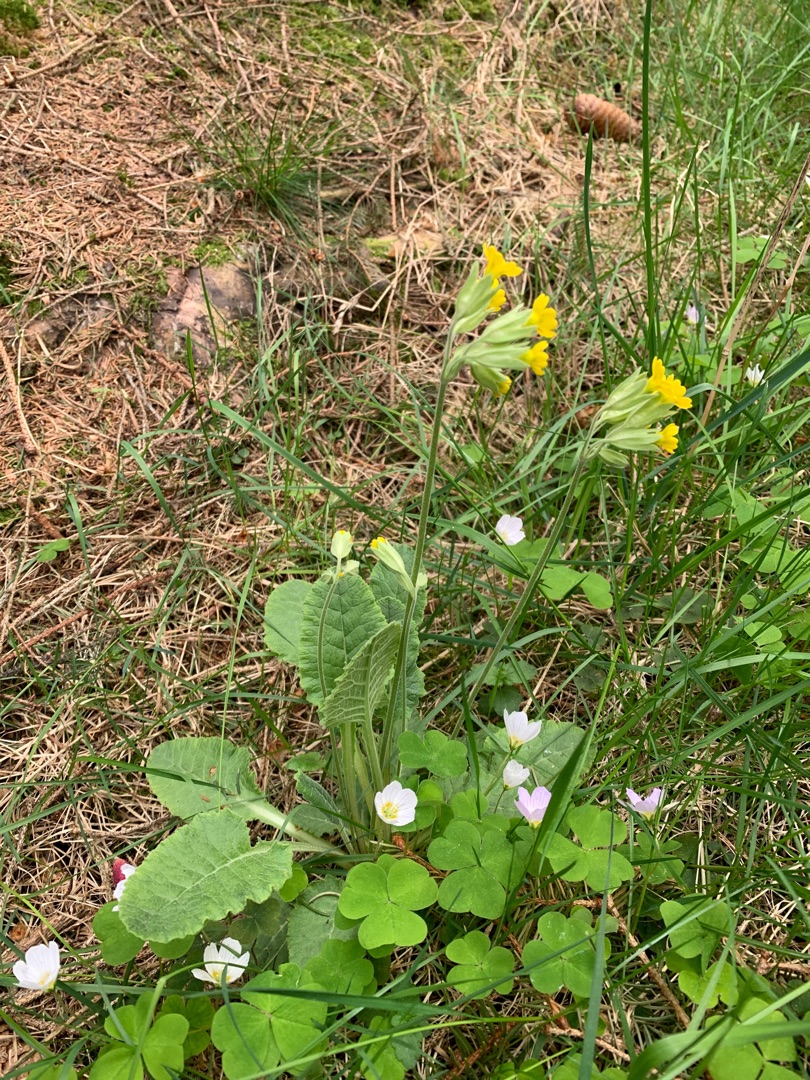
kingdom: Plantae
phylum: Tracheophyta
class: Magnoliopsida
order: Ericales
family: Primulaceae
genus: Primula
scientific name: Primula veris
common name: Hulkravet kodriver
